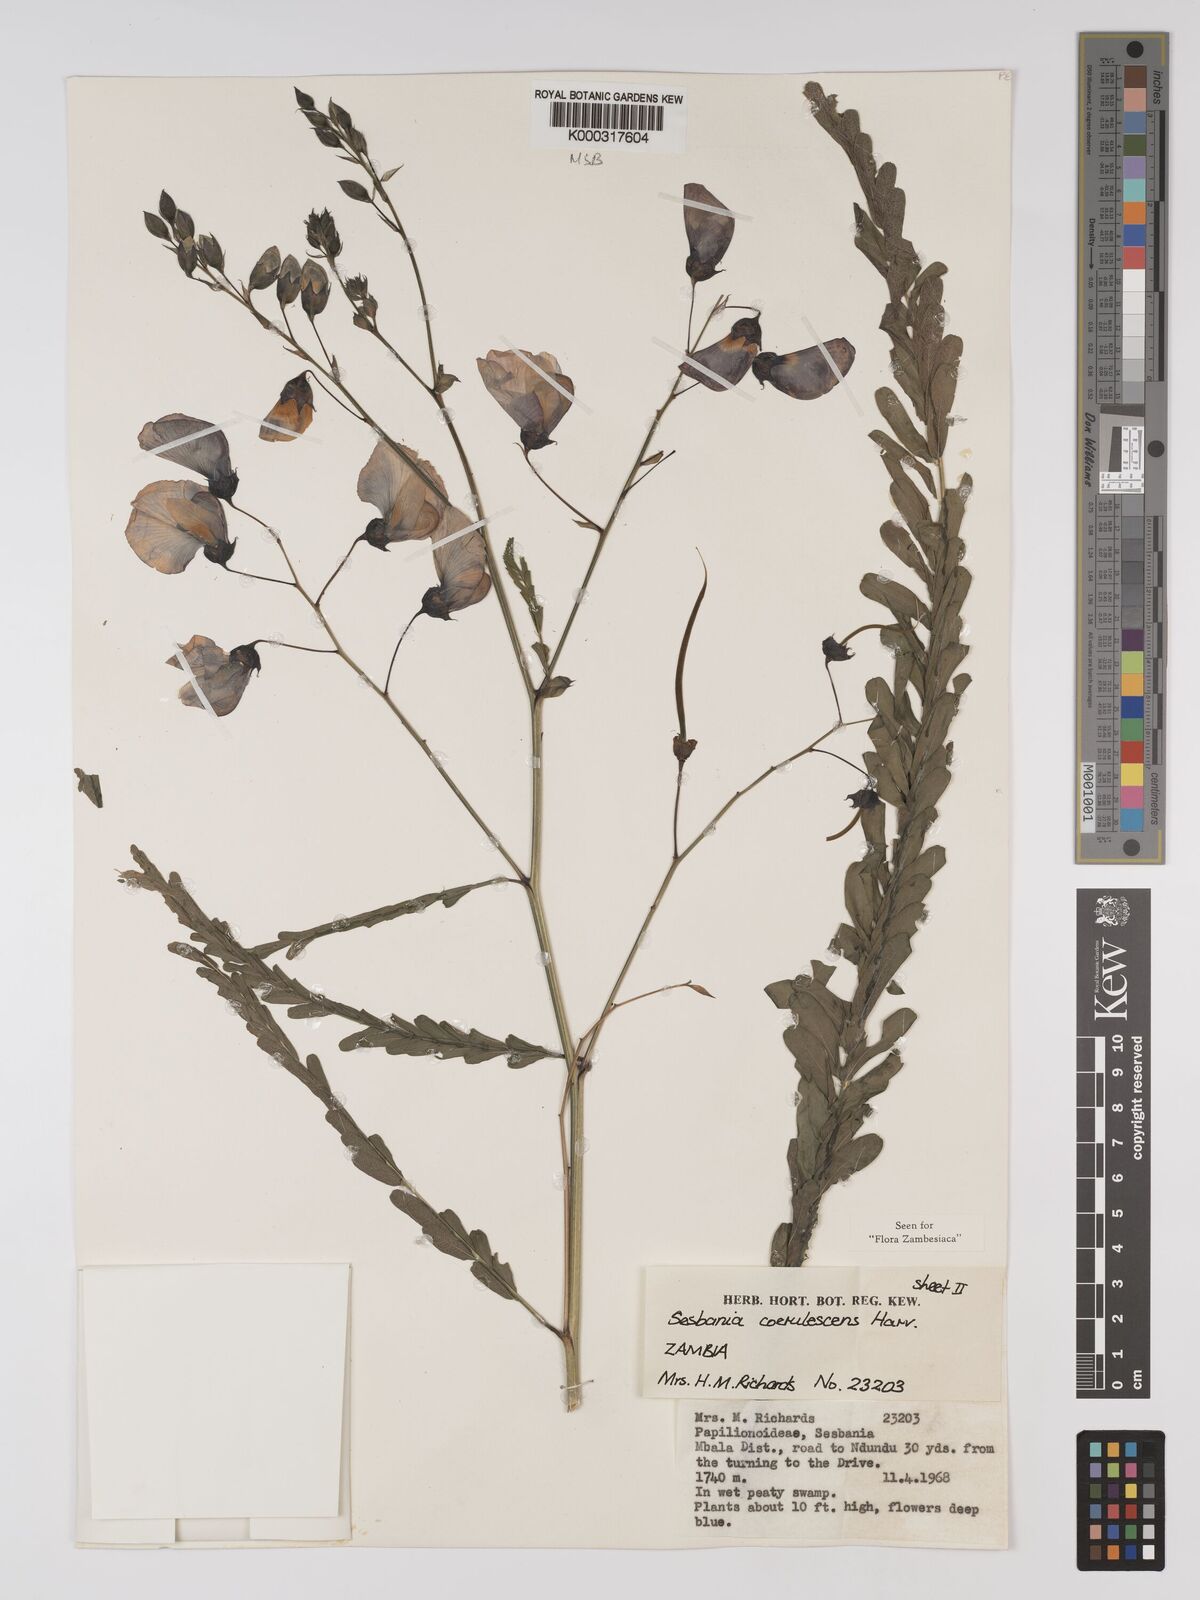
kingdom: Plantae
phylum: Tracheophyta
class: Magnoliopsida
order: Fabales
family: Fabaceae
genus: Sesbania
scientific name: Sesbania coerulescens
